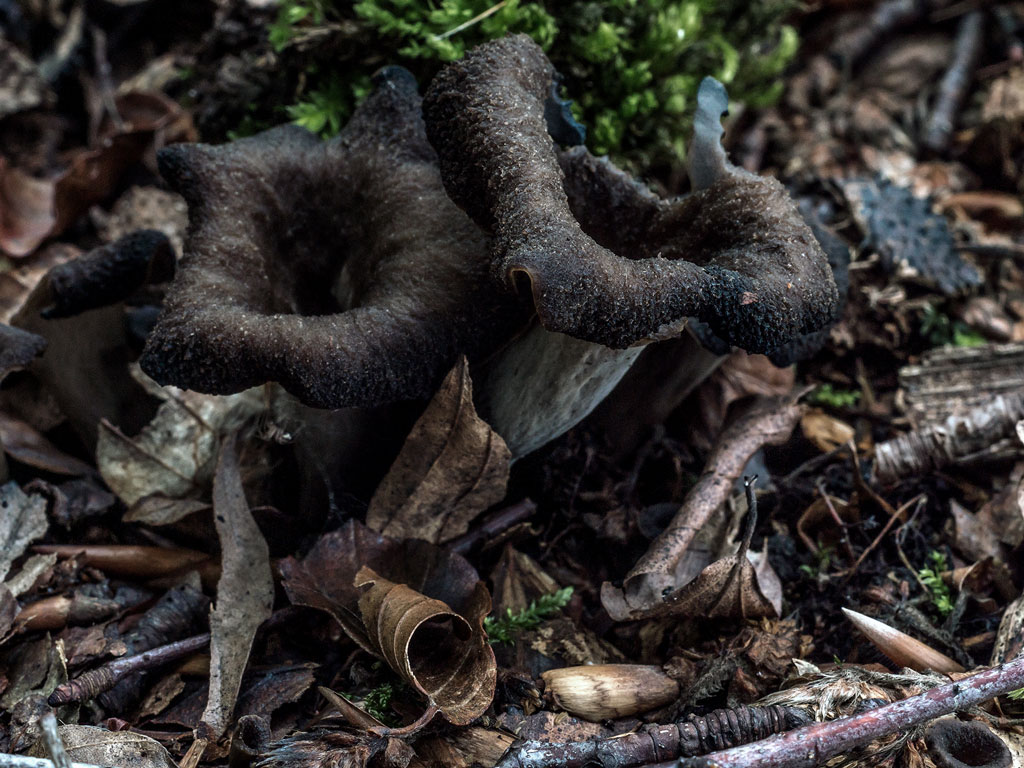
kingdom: Fungi
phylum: Basidiomycota
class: Agaricomycetes
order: Cantharellales
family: Hydnaceae
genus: Craterellus
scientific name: Craterellus cornucopioides
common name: trompetsvamp
